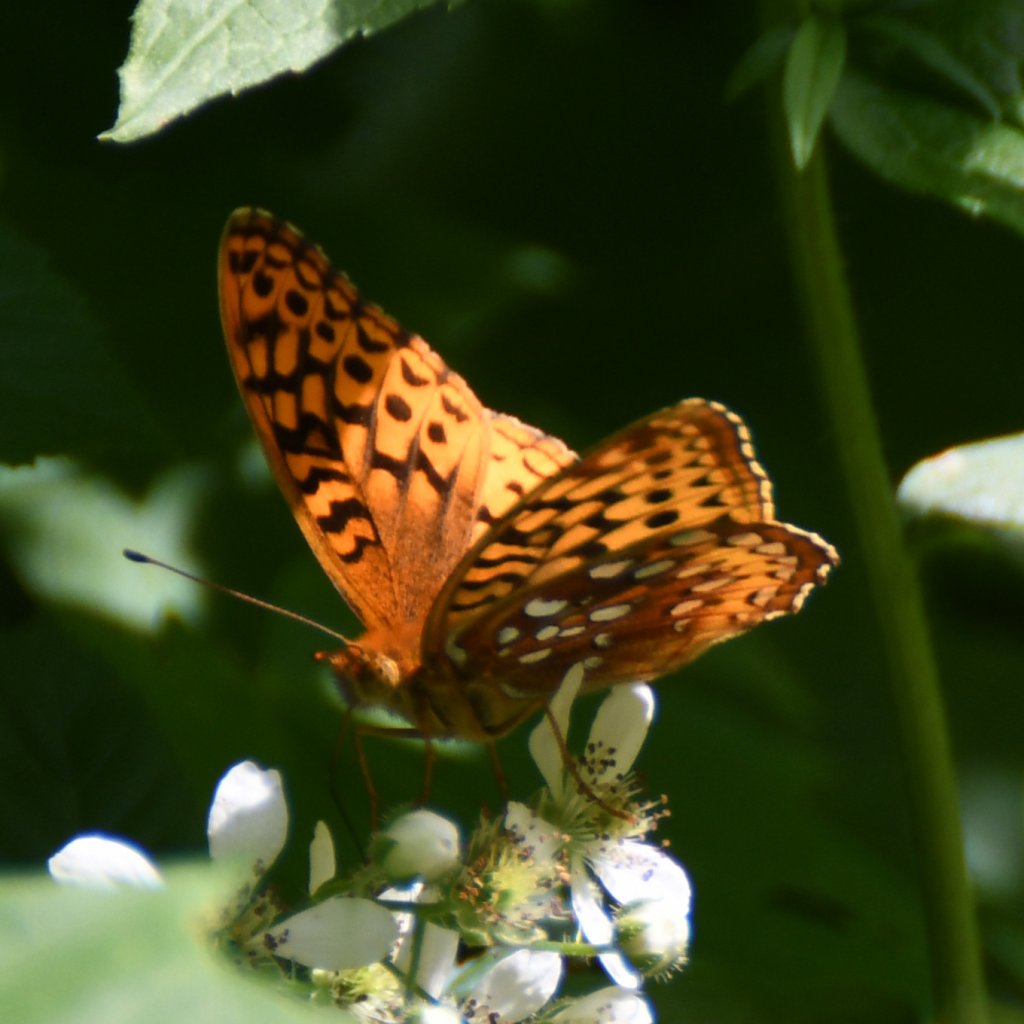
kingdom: Animalia
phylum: Arthropoda
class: Insecta
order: Lepidoptera
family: Nymphalidae
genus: Speyeria
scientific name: Speyeria cybele
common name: Great Spangled Fritillary
